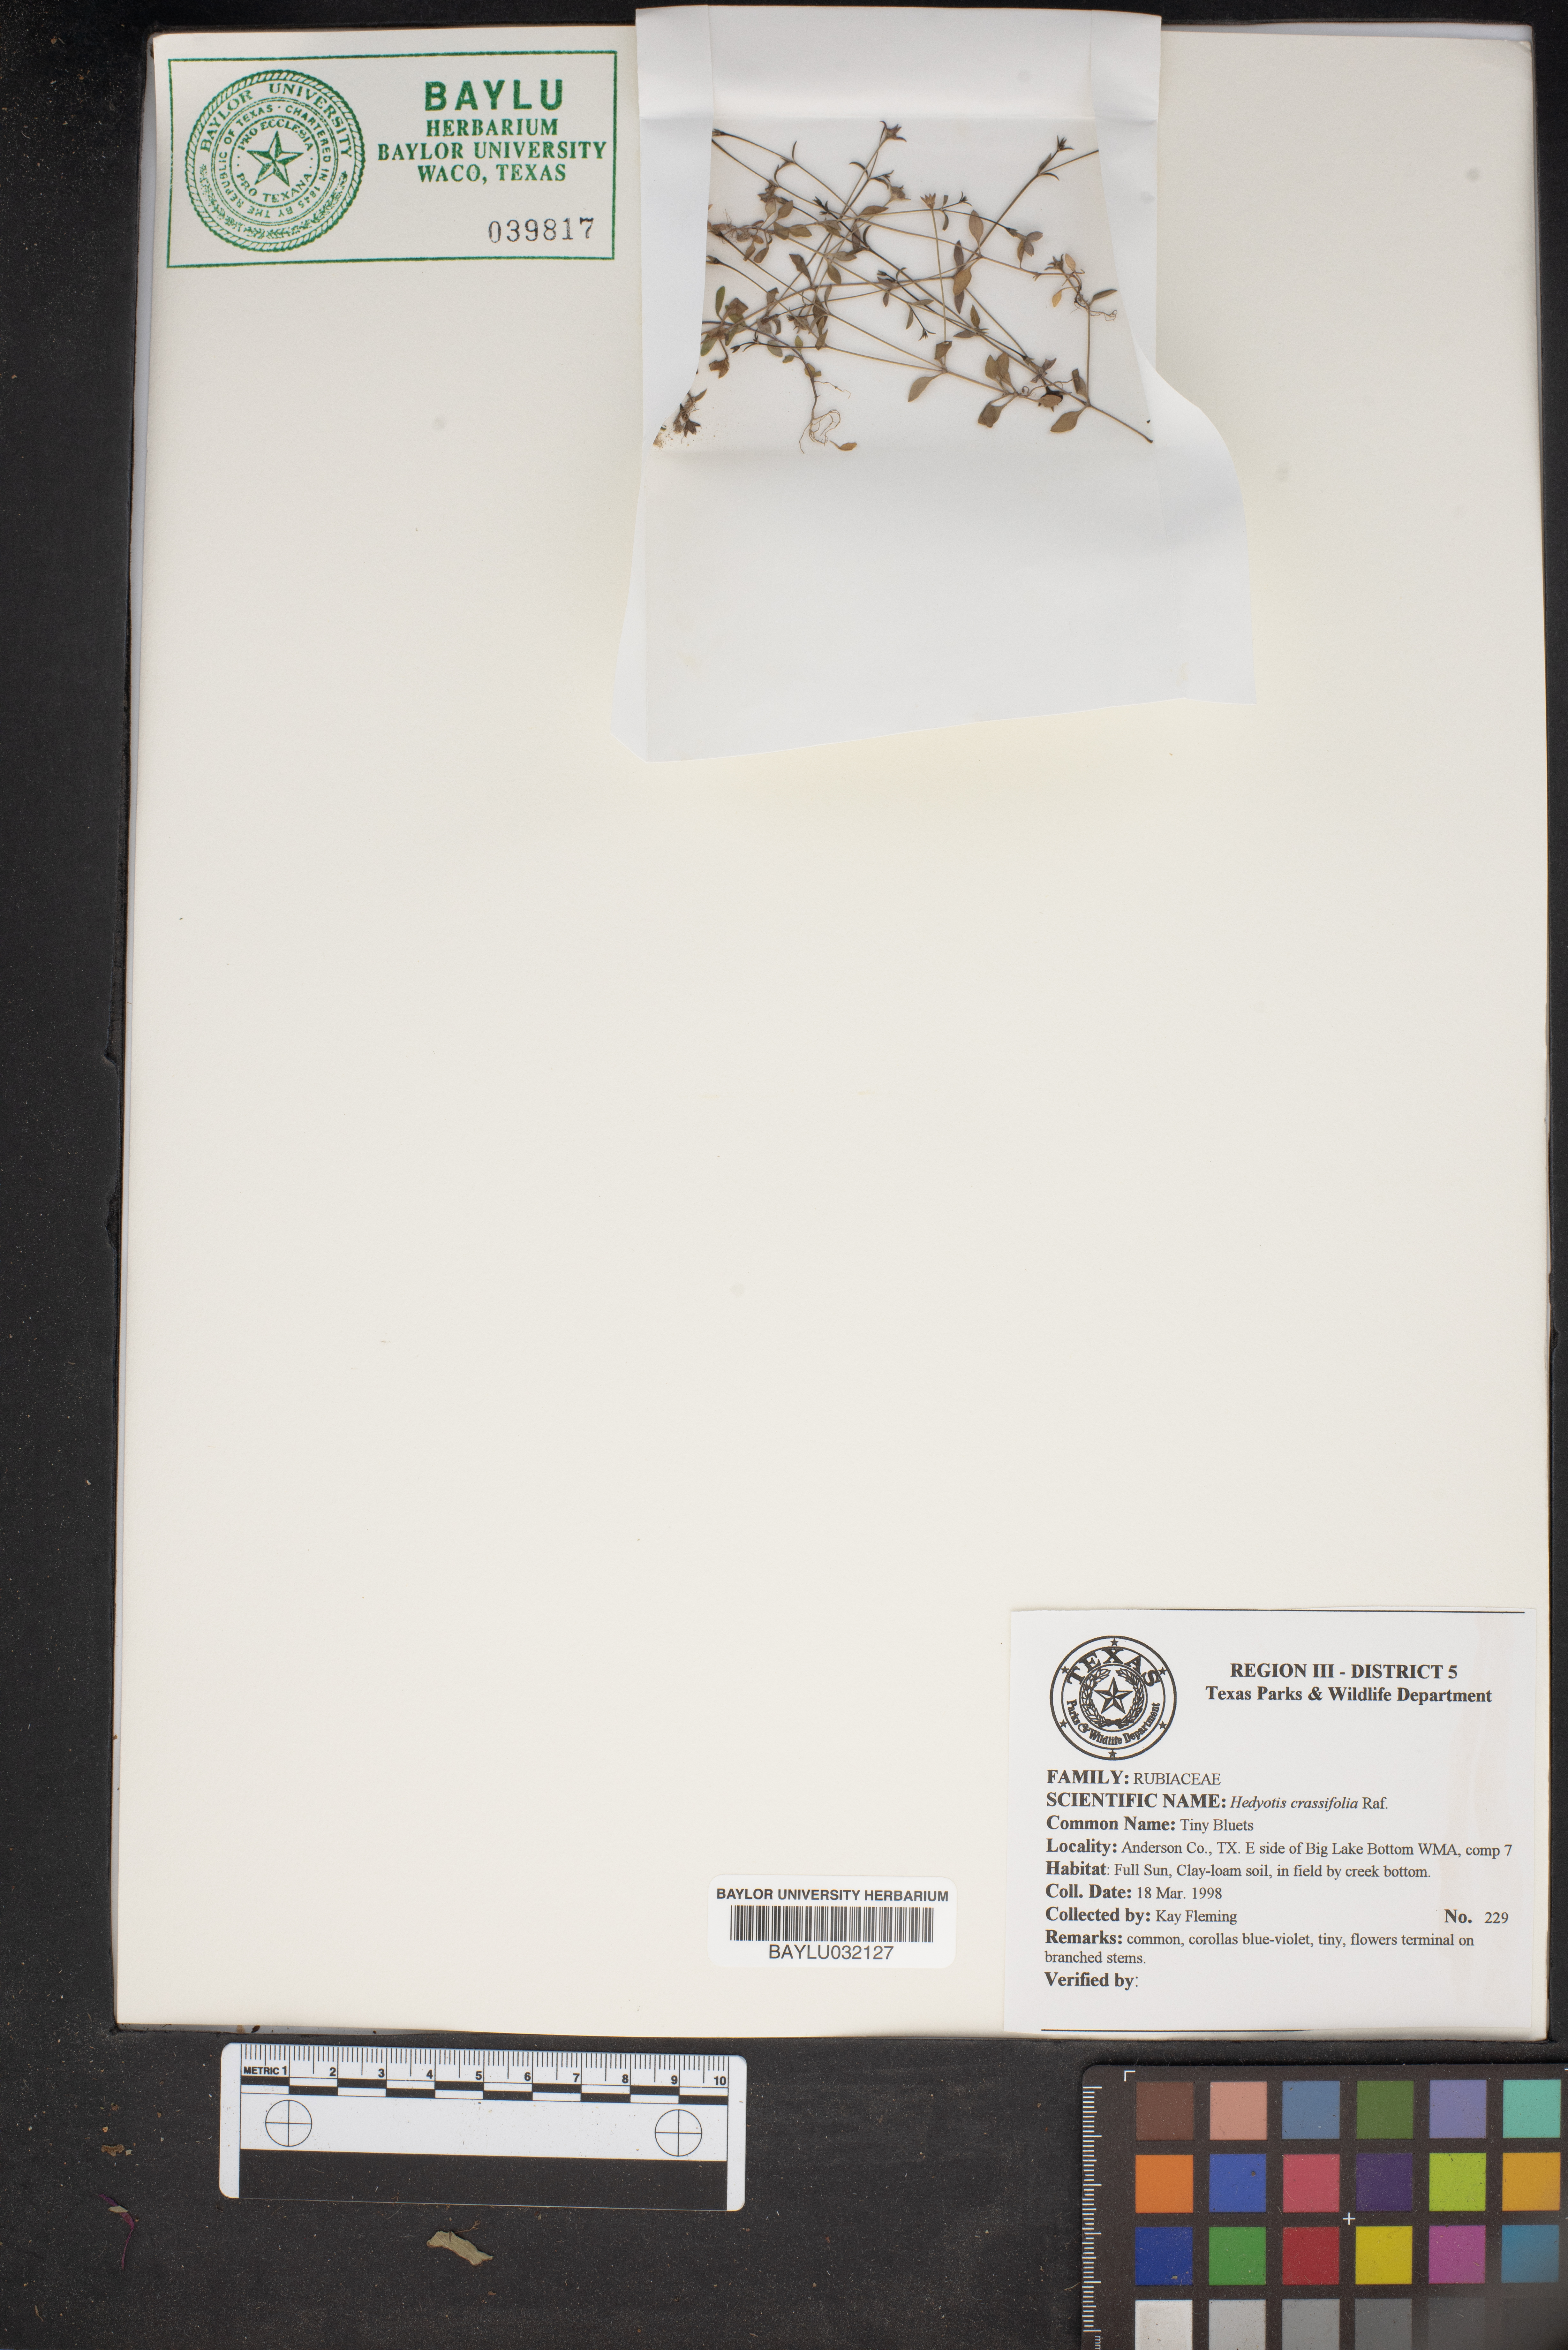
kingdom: Plantae
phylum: Tracheophyta
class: Magnoliopsida
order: Gentianales
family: Rubiaceae
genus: Houstonia
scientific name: Houstonia pusilla
